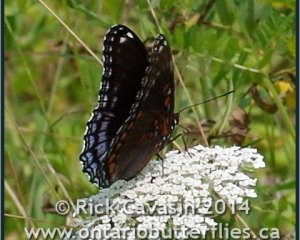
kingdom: Animalia
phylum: Arthropoda
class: Insecta
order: Lepidoptera
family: Nymphalidae
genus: Limenitis
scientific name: Limenitis astyanax
